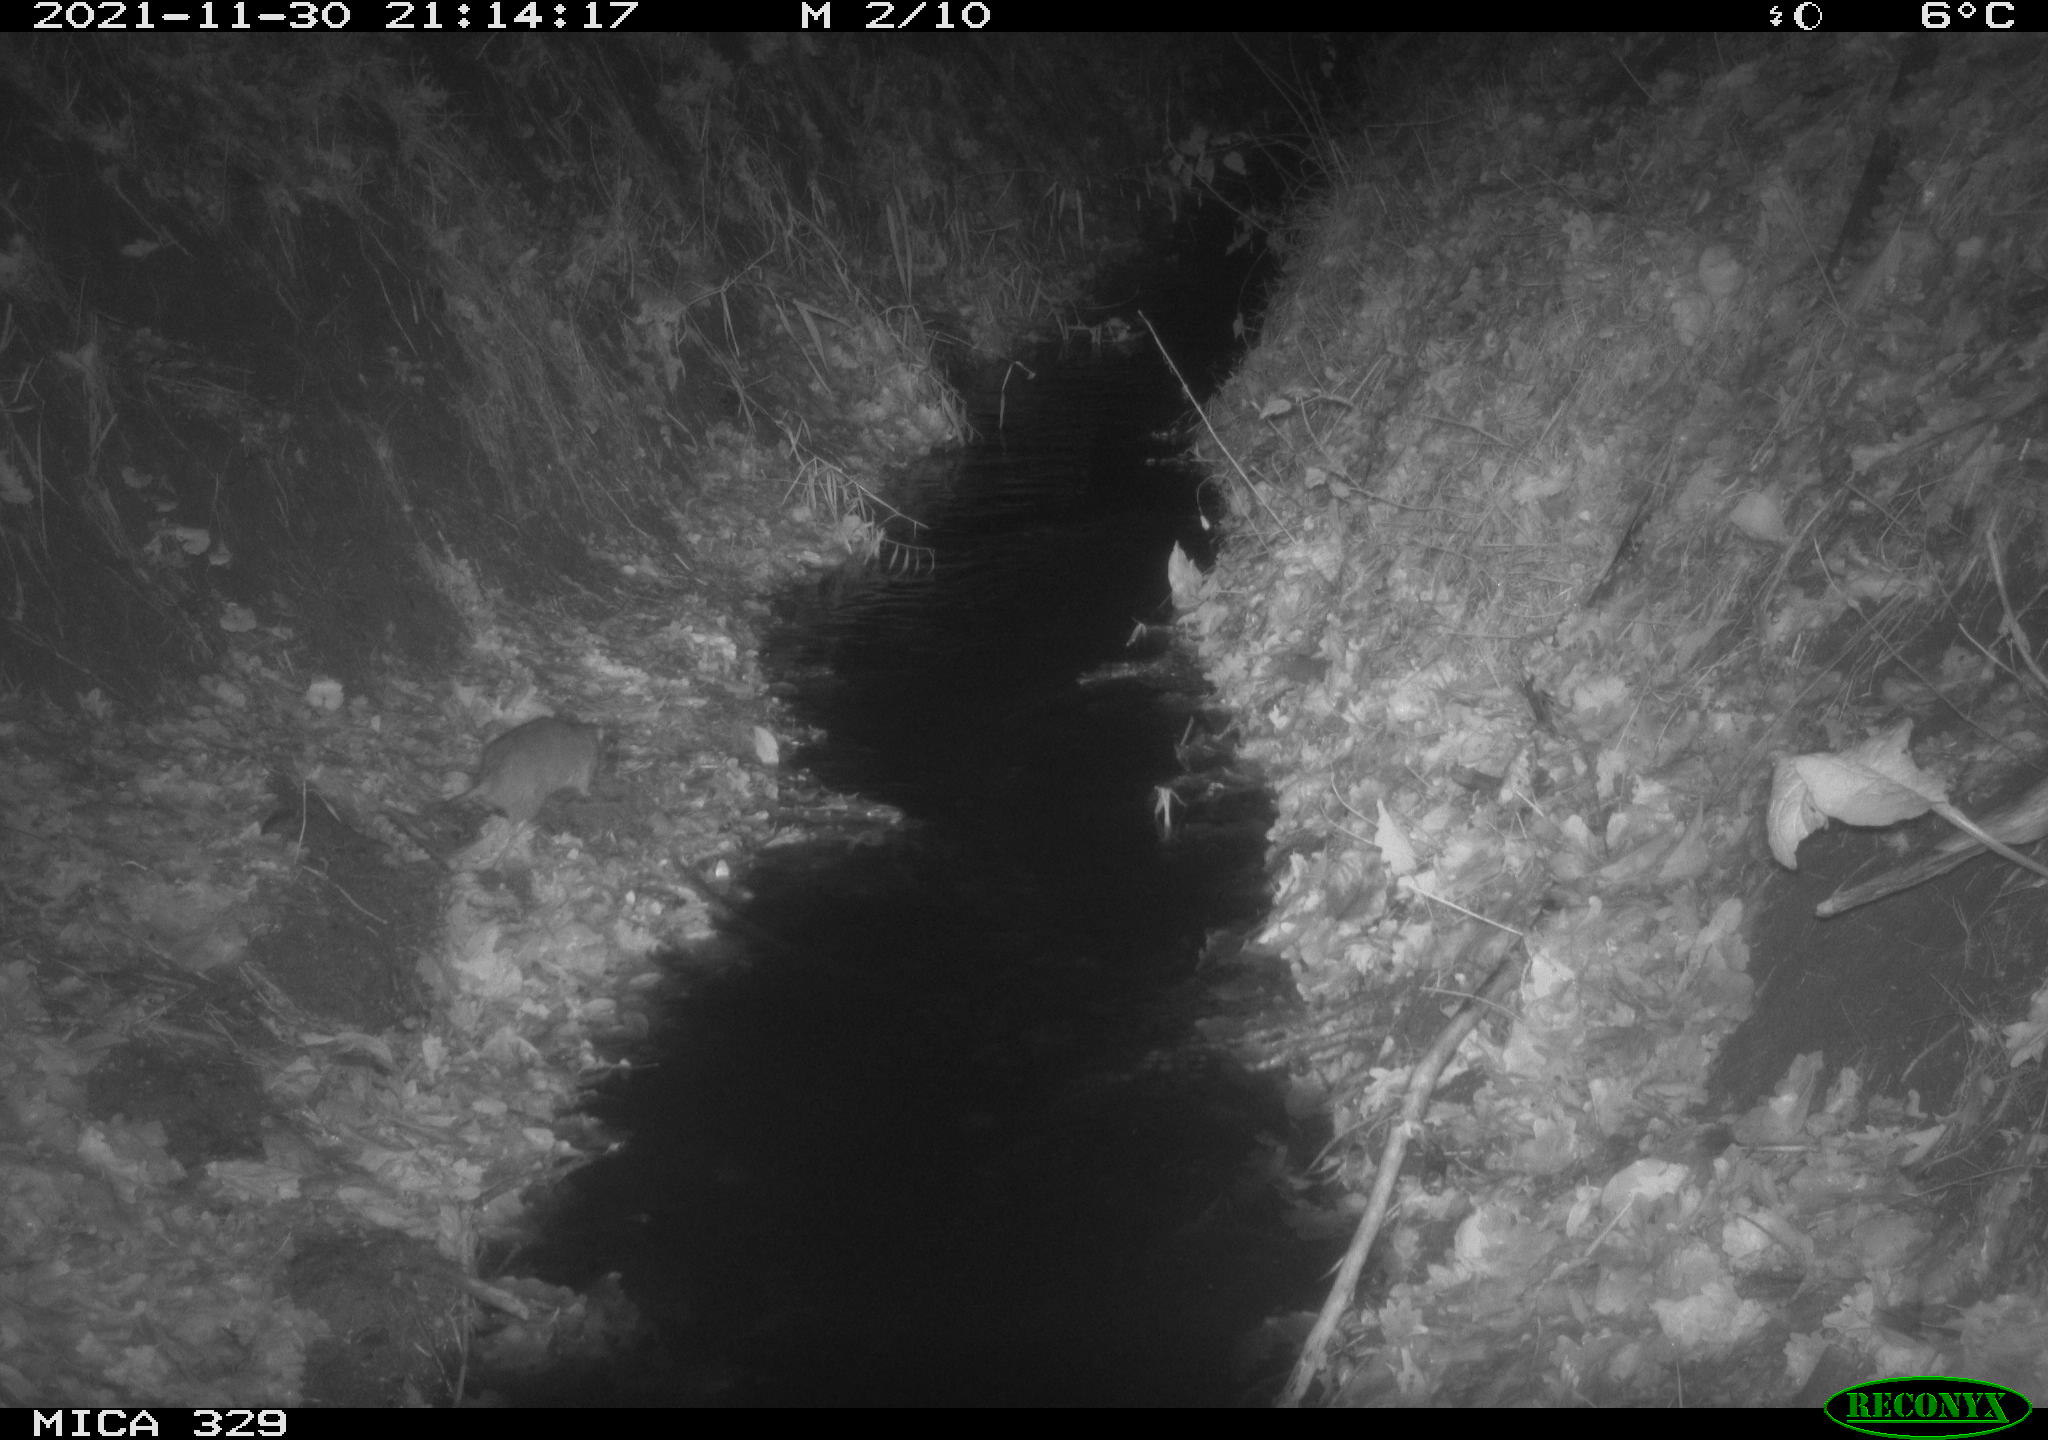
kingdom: Animalia
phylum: Chordata
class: Mammalia
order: Rodentia
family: Muridae
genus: Rattus
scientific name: Rattus norvegicus
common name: Brown rat
